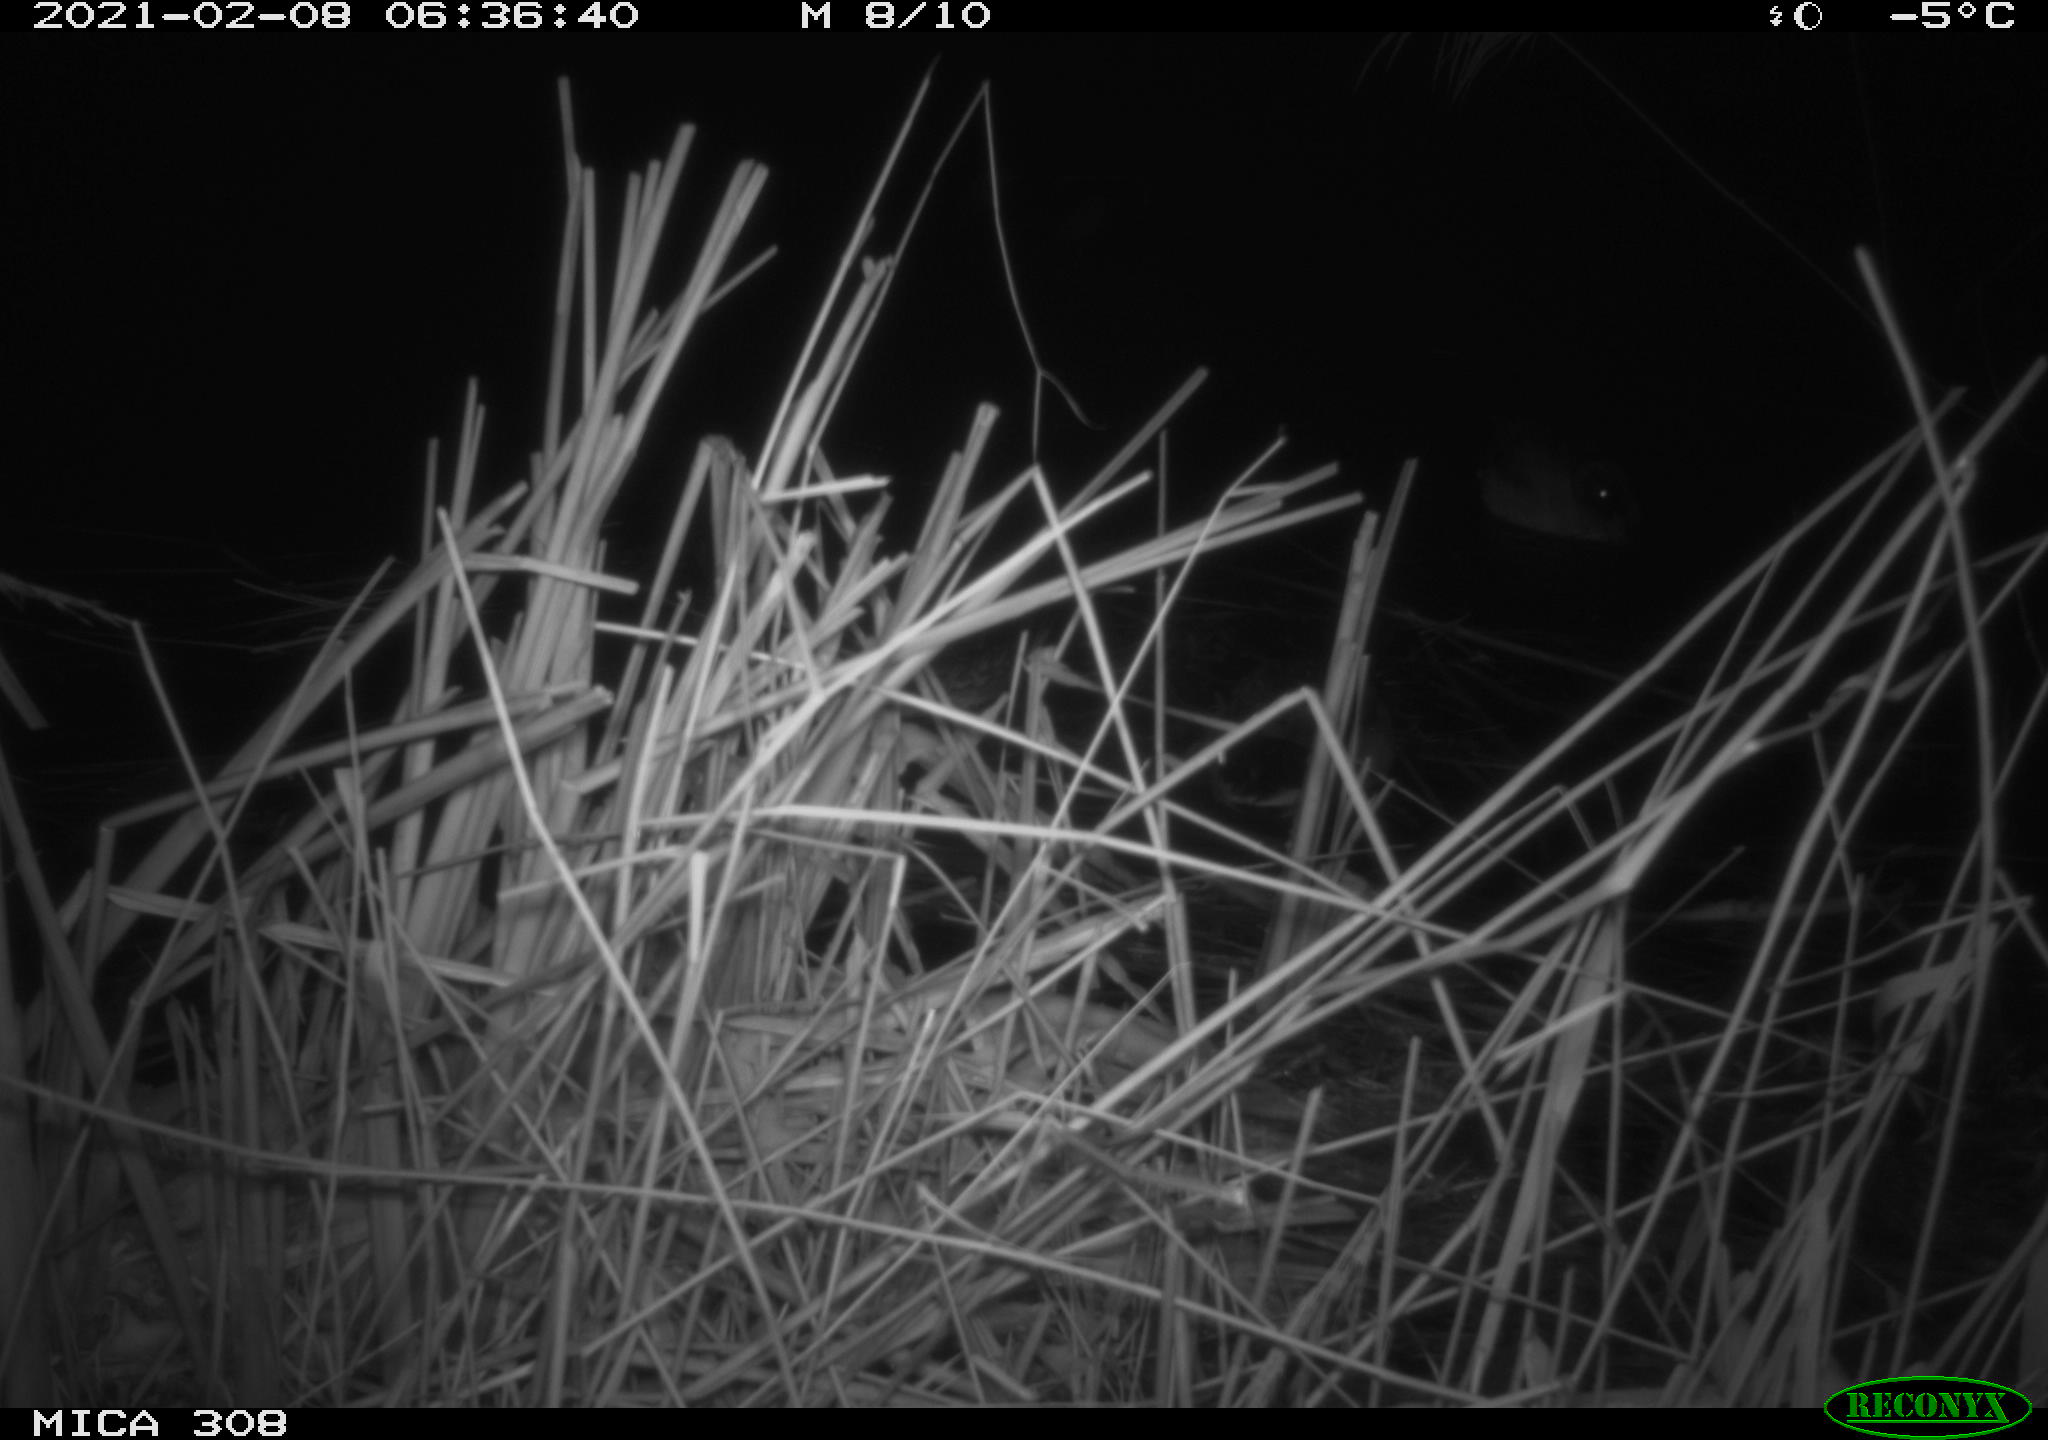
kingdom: Animalia
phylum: Chordata
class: Aves
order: Anseriformes
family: Anatidae
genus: Anas
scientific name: Anas platyrhynchos
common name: Mallard
